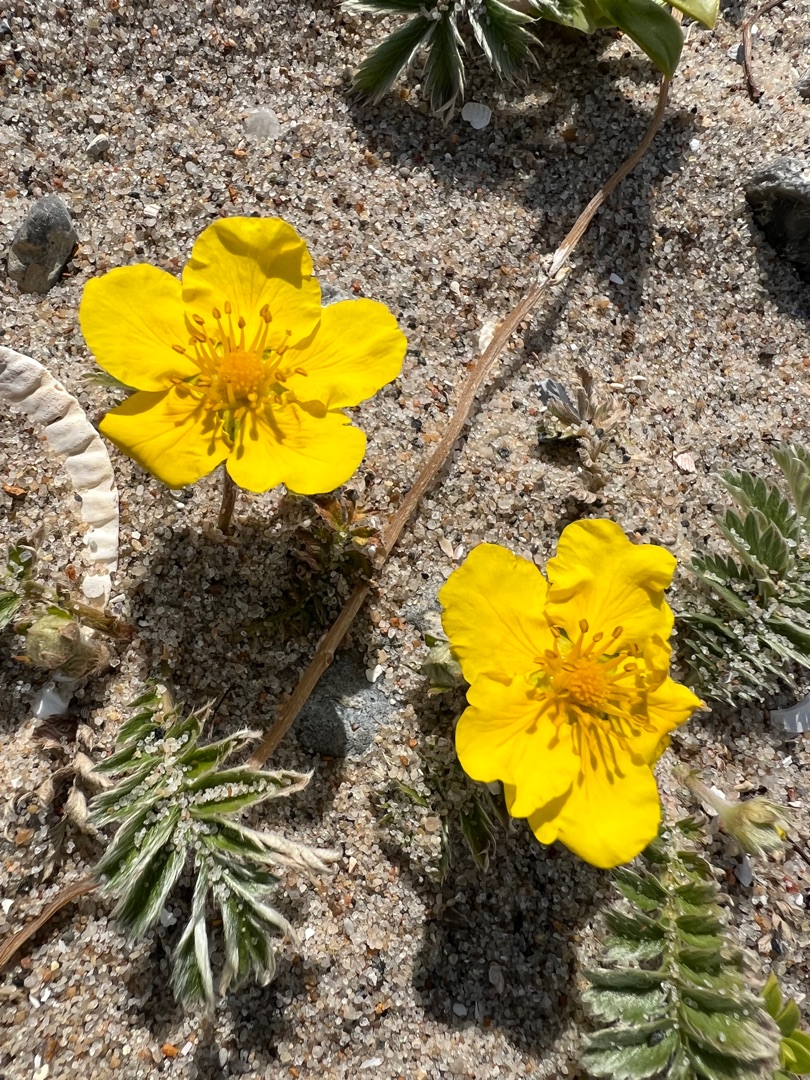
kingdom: Plantae
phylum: Tracheophyta
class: Magnoliopsida
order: Rosales
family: Rosaceae
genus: Argentina
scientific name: Argentina anserina
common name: Gåsepotentil
